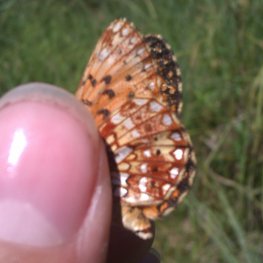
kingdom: Animalia
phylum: Arthropoda
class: Insecta
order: Lepidoptera
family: Nymphalidae
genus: Boloria
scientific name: Boloria selene
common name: Silver-bordered Fritillary
